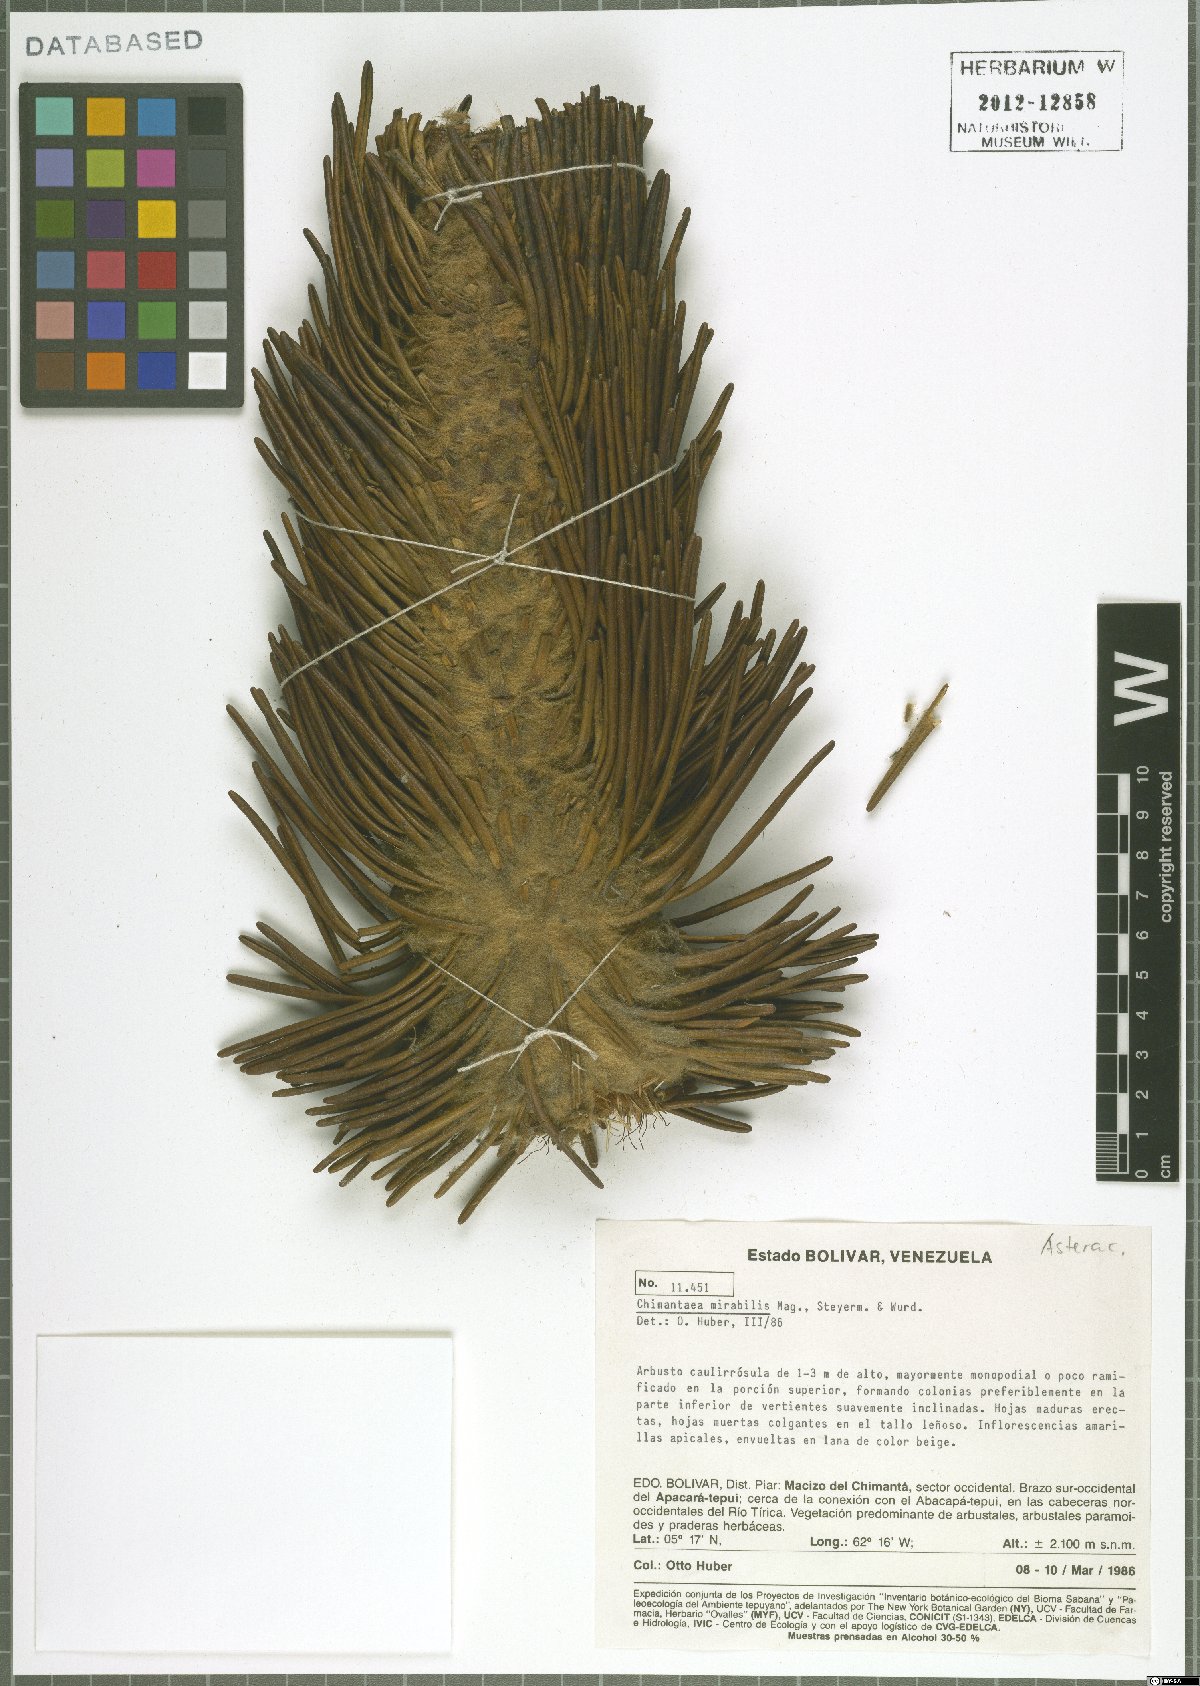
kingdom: Plantae
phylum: Tracheophyta
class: Magnoliopsida
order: Asterales
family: Asteraceae
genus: Chimantaea
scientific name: Chimantaea mirabilis
